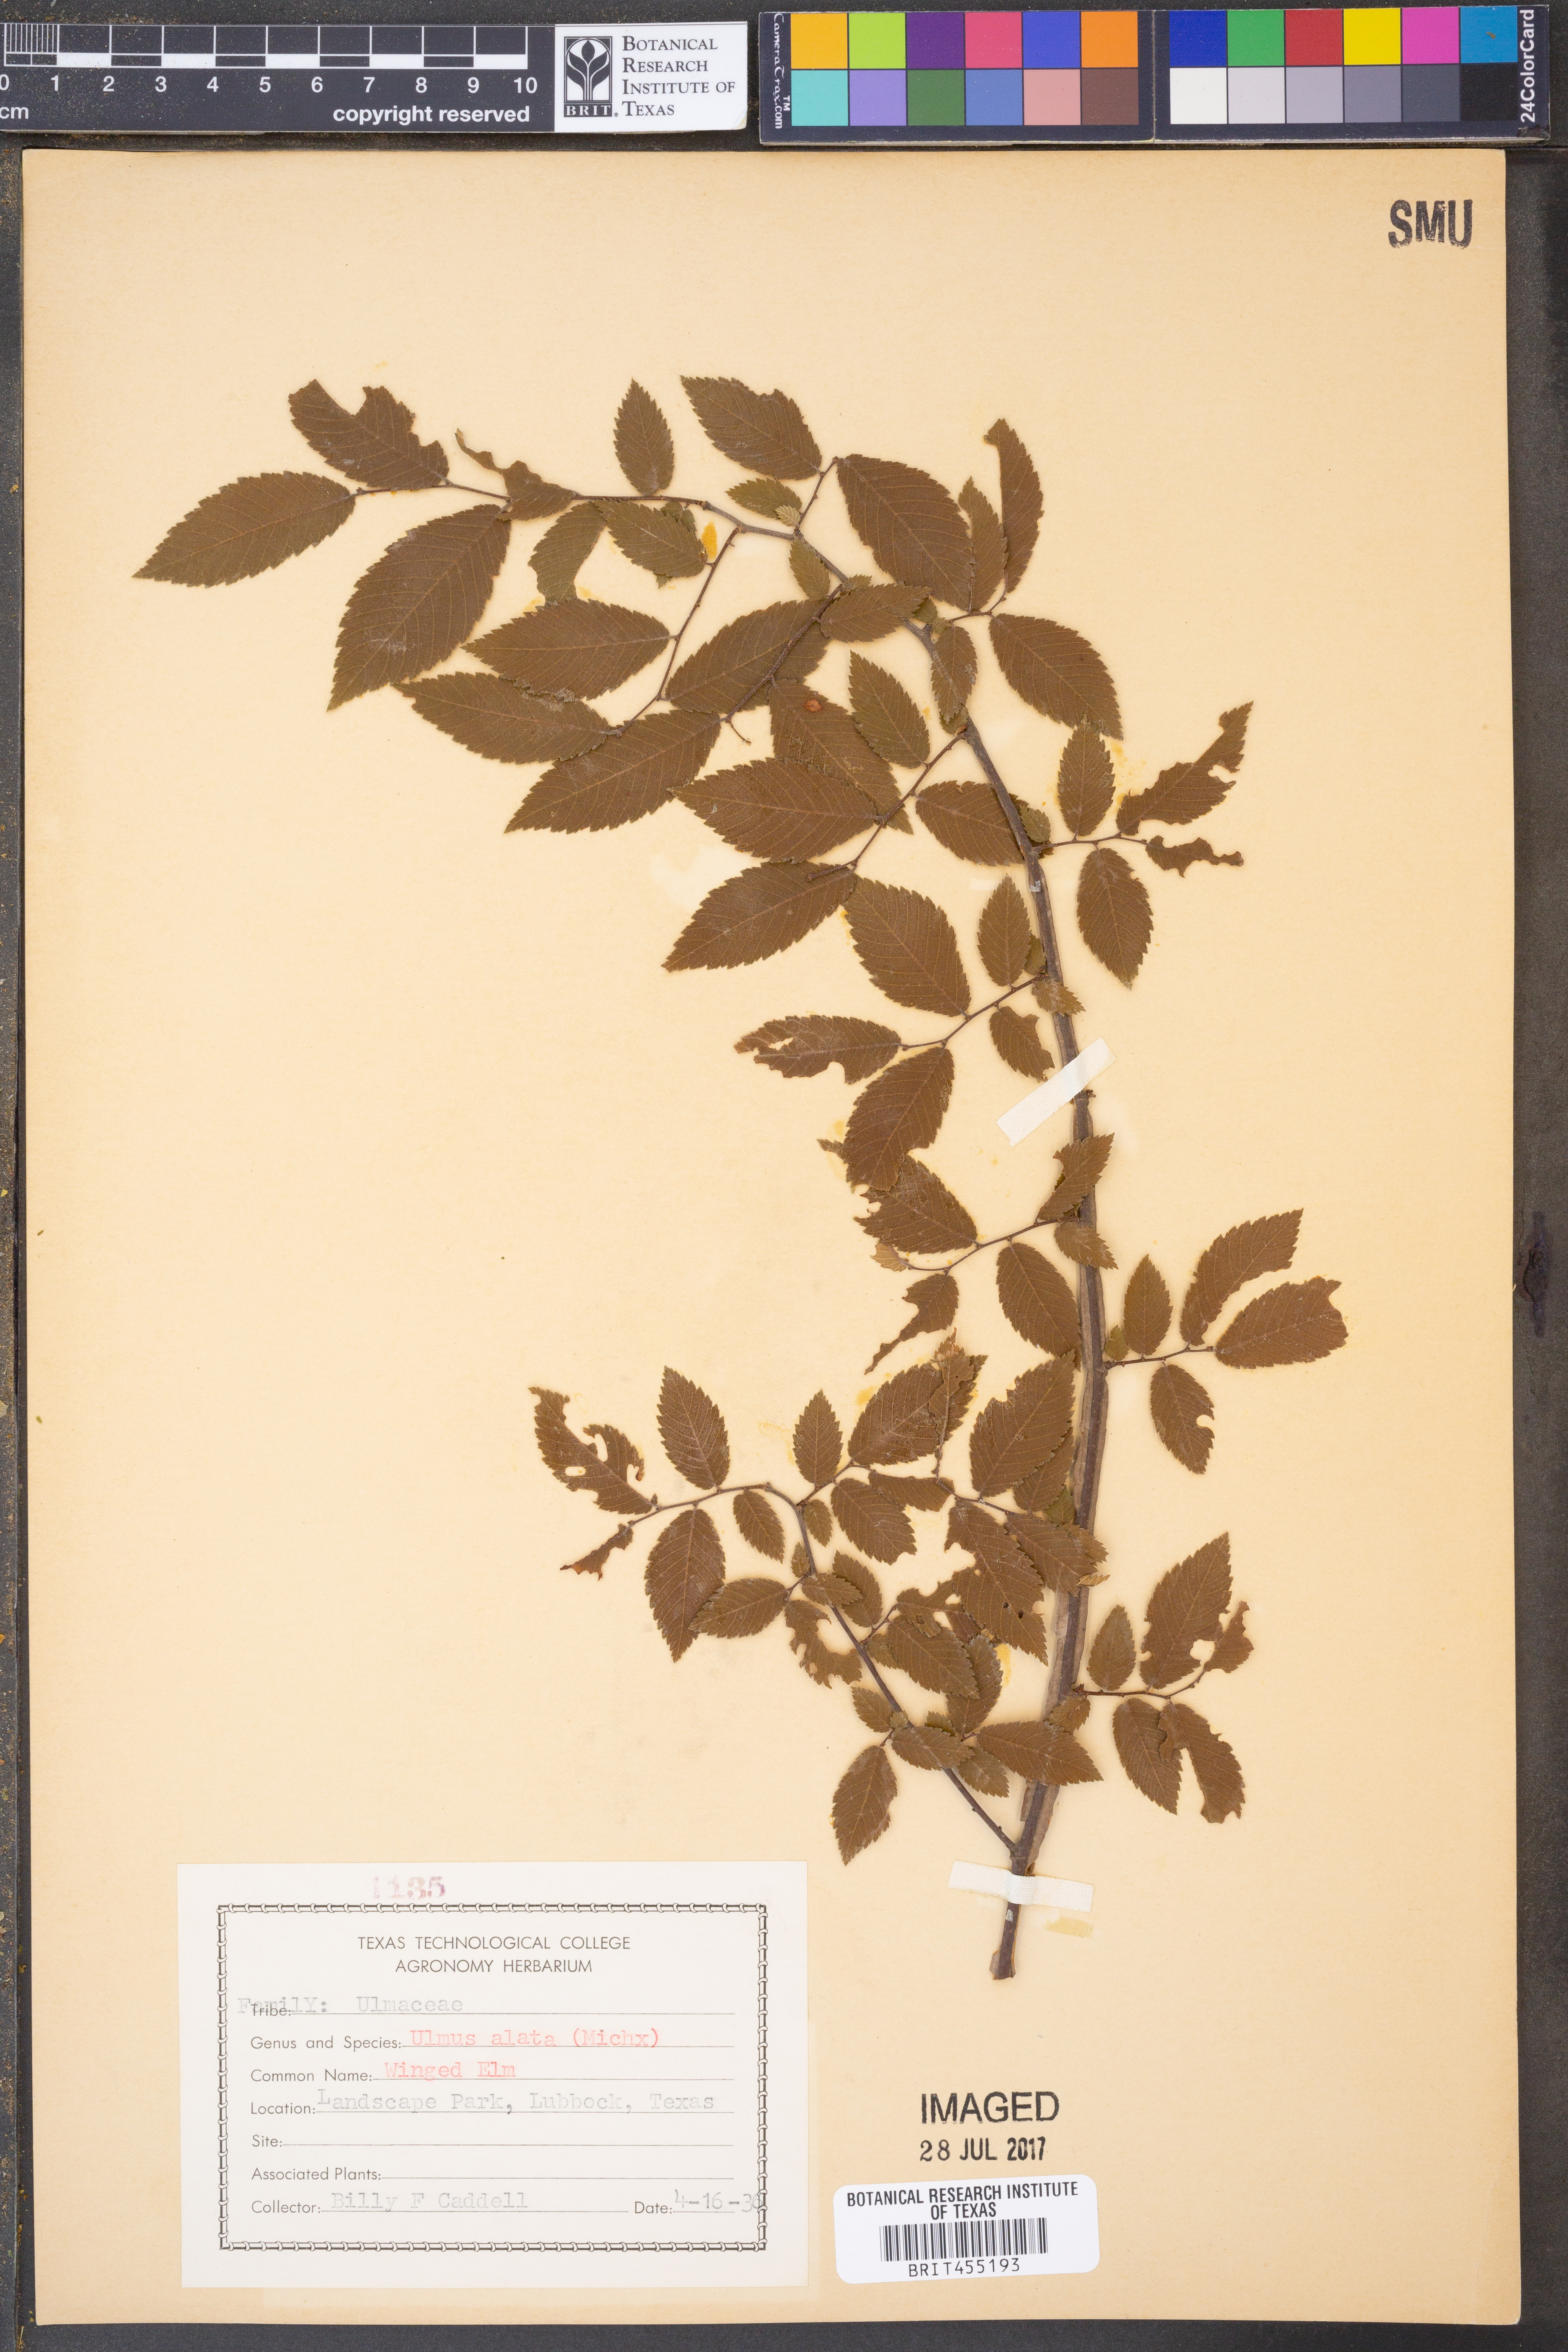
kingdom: Plantae
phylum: Tracheophyta
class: Magnoliopsida
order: Rosales
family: Ulmaceae
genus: Ulmus
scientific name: Ulmus alata
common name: Winged elm
